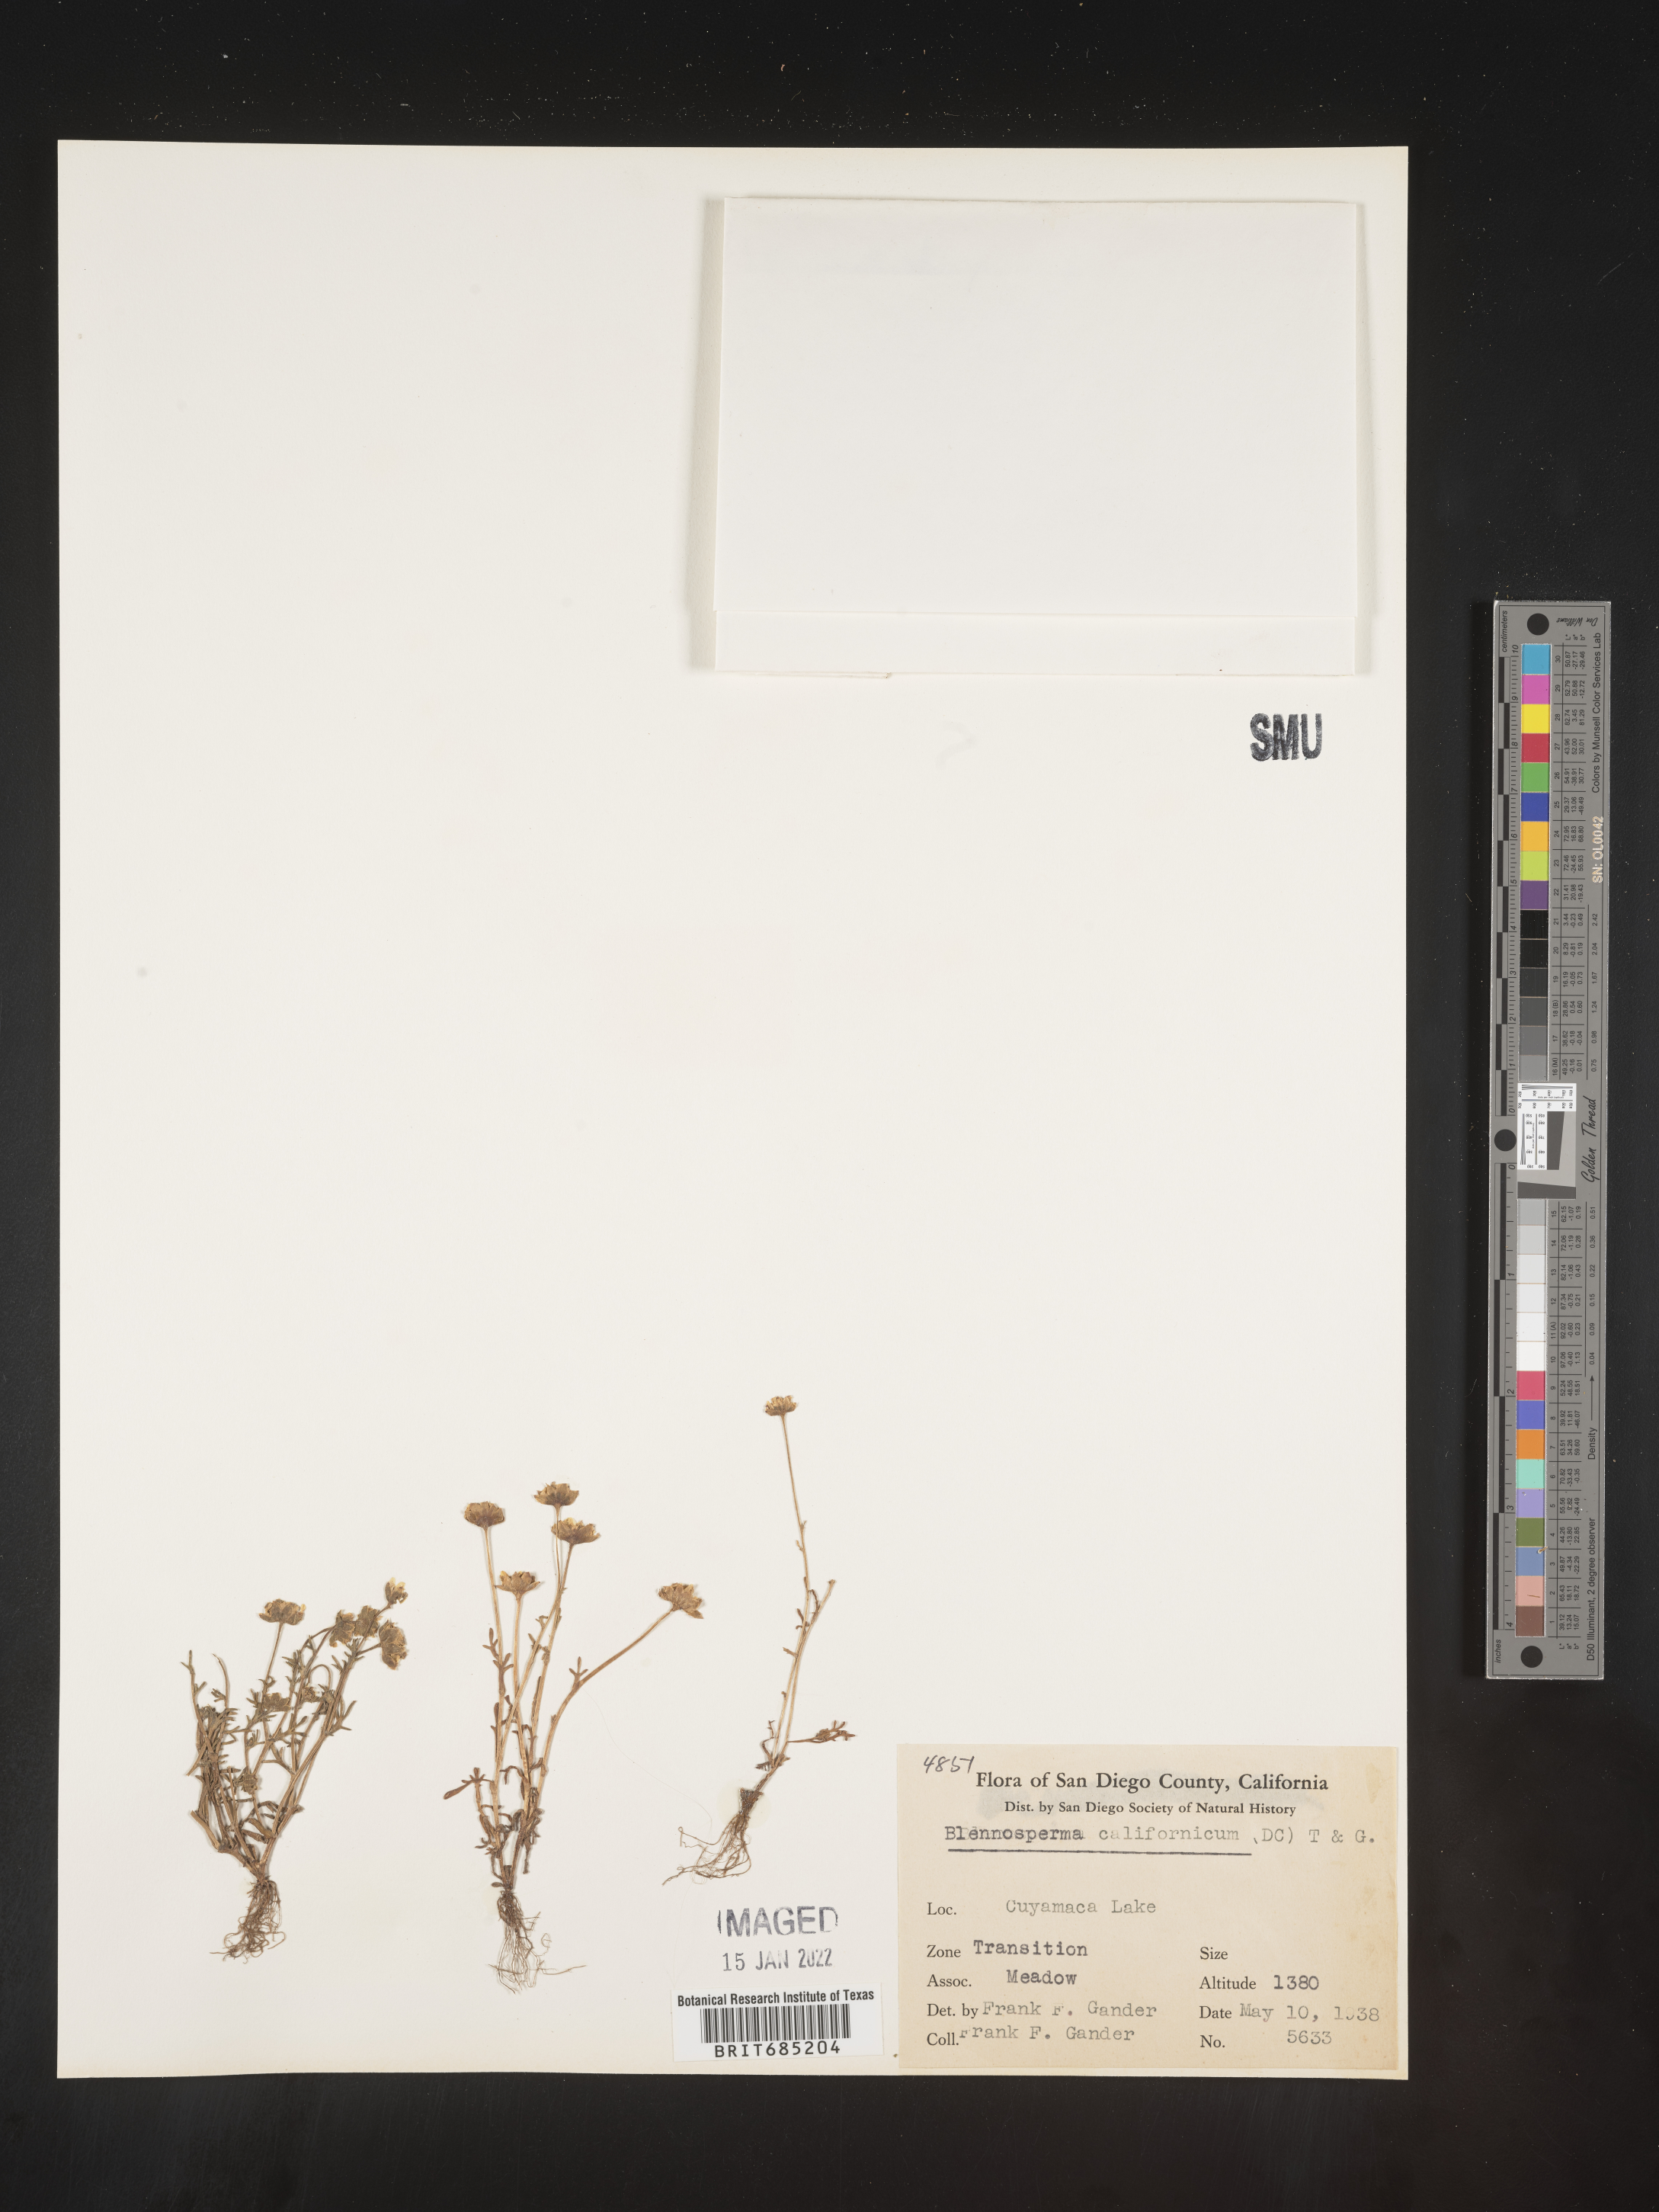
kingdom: Plantae
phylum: Tracheophyta
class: Magnoliopsida
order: Asterales
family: Asteraceae
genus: Blennosperma
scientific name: Blennosperma
